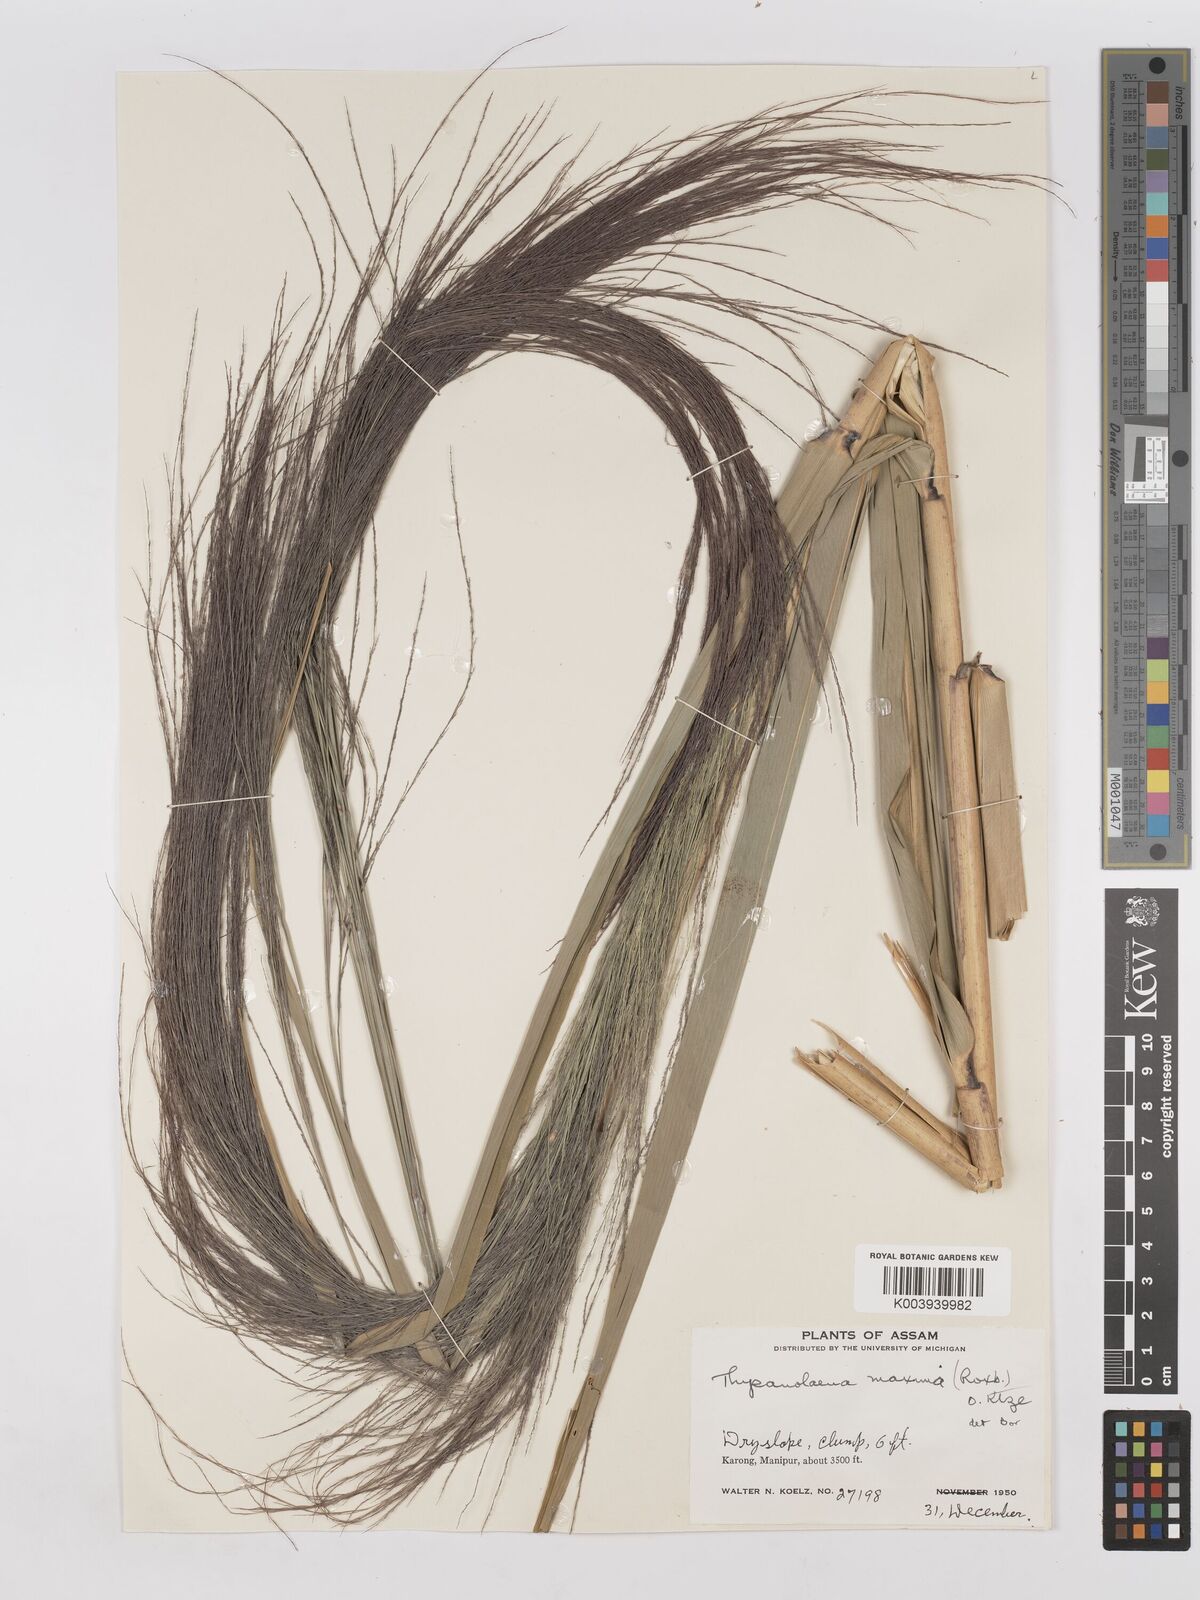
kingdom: Plantae
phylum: Tracheophyta
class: Liliopsida
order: Poales
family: Poaceae
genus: Thysanolaena
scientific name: Thysanolaena latifolia
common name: Tiger grass
